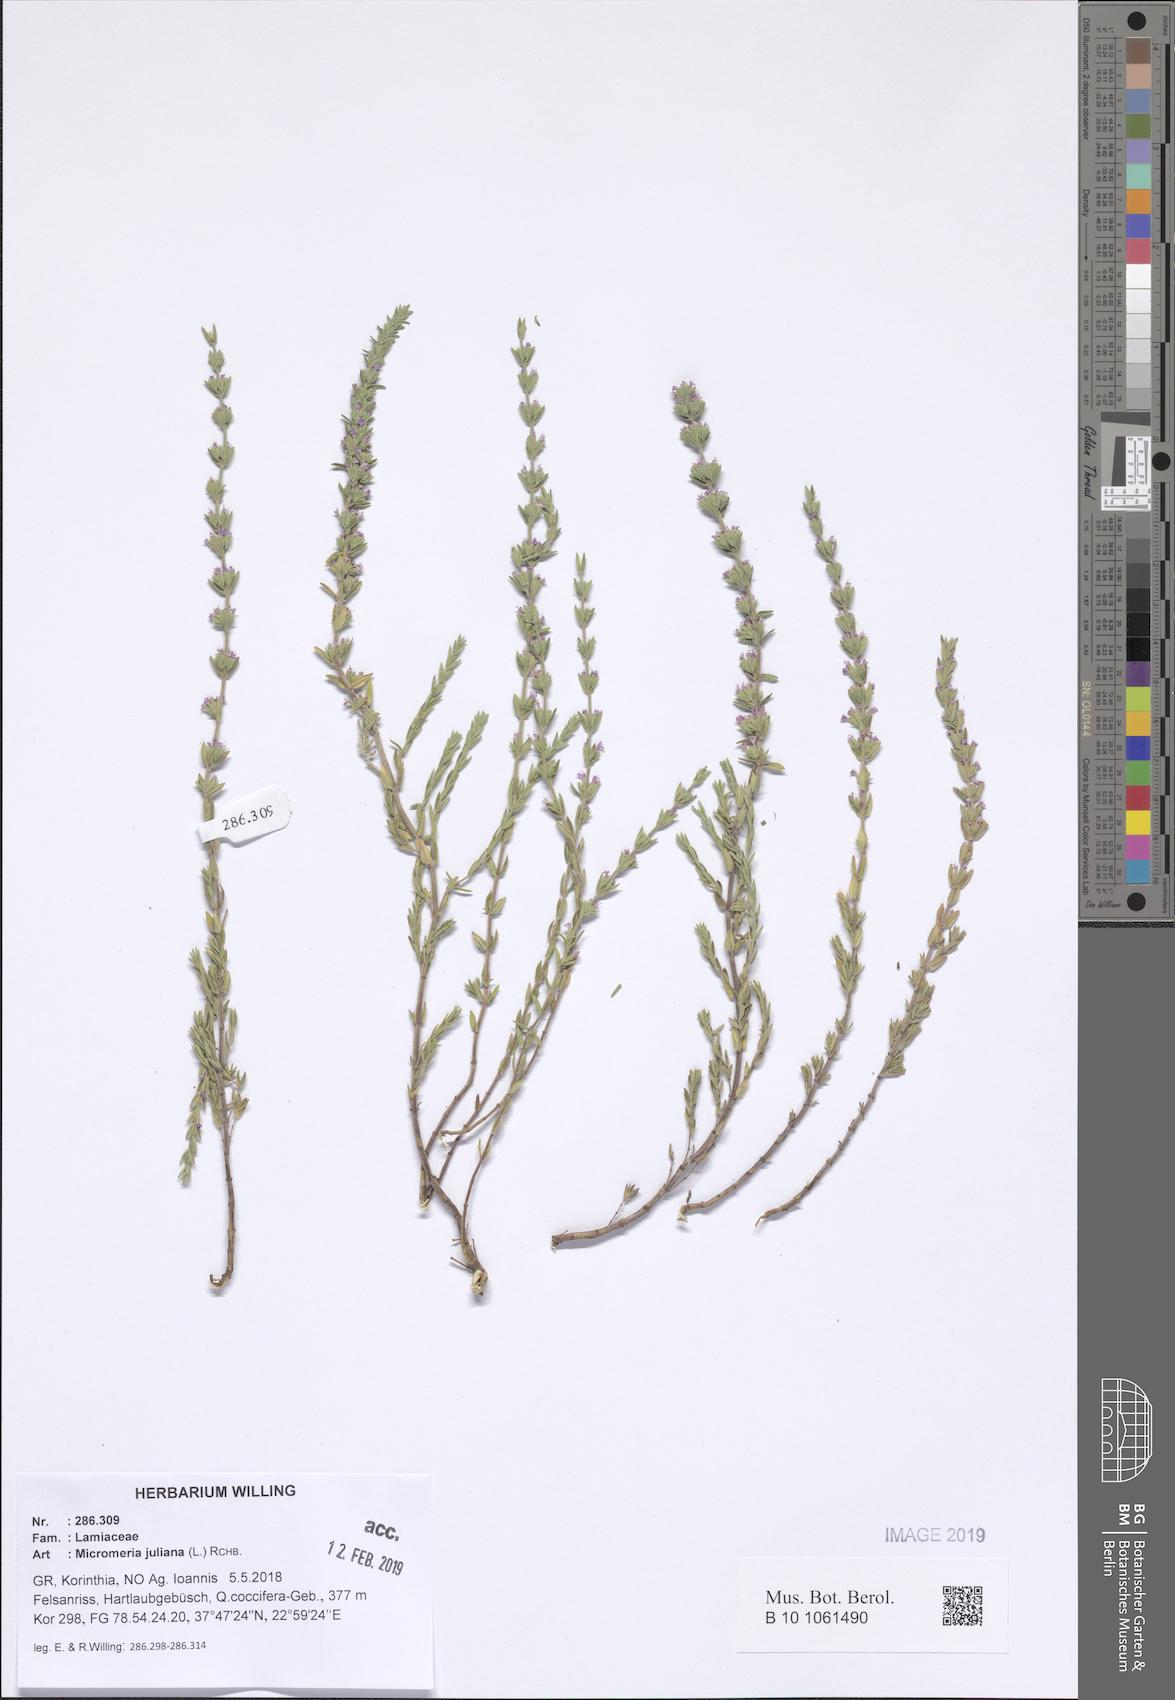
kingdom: Plantae
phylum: Tracheophyta
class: Magnoliopsida
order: Lamiales
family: Lamiaceae
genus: Micromeria
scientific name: Micromeria juliana
